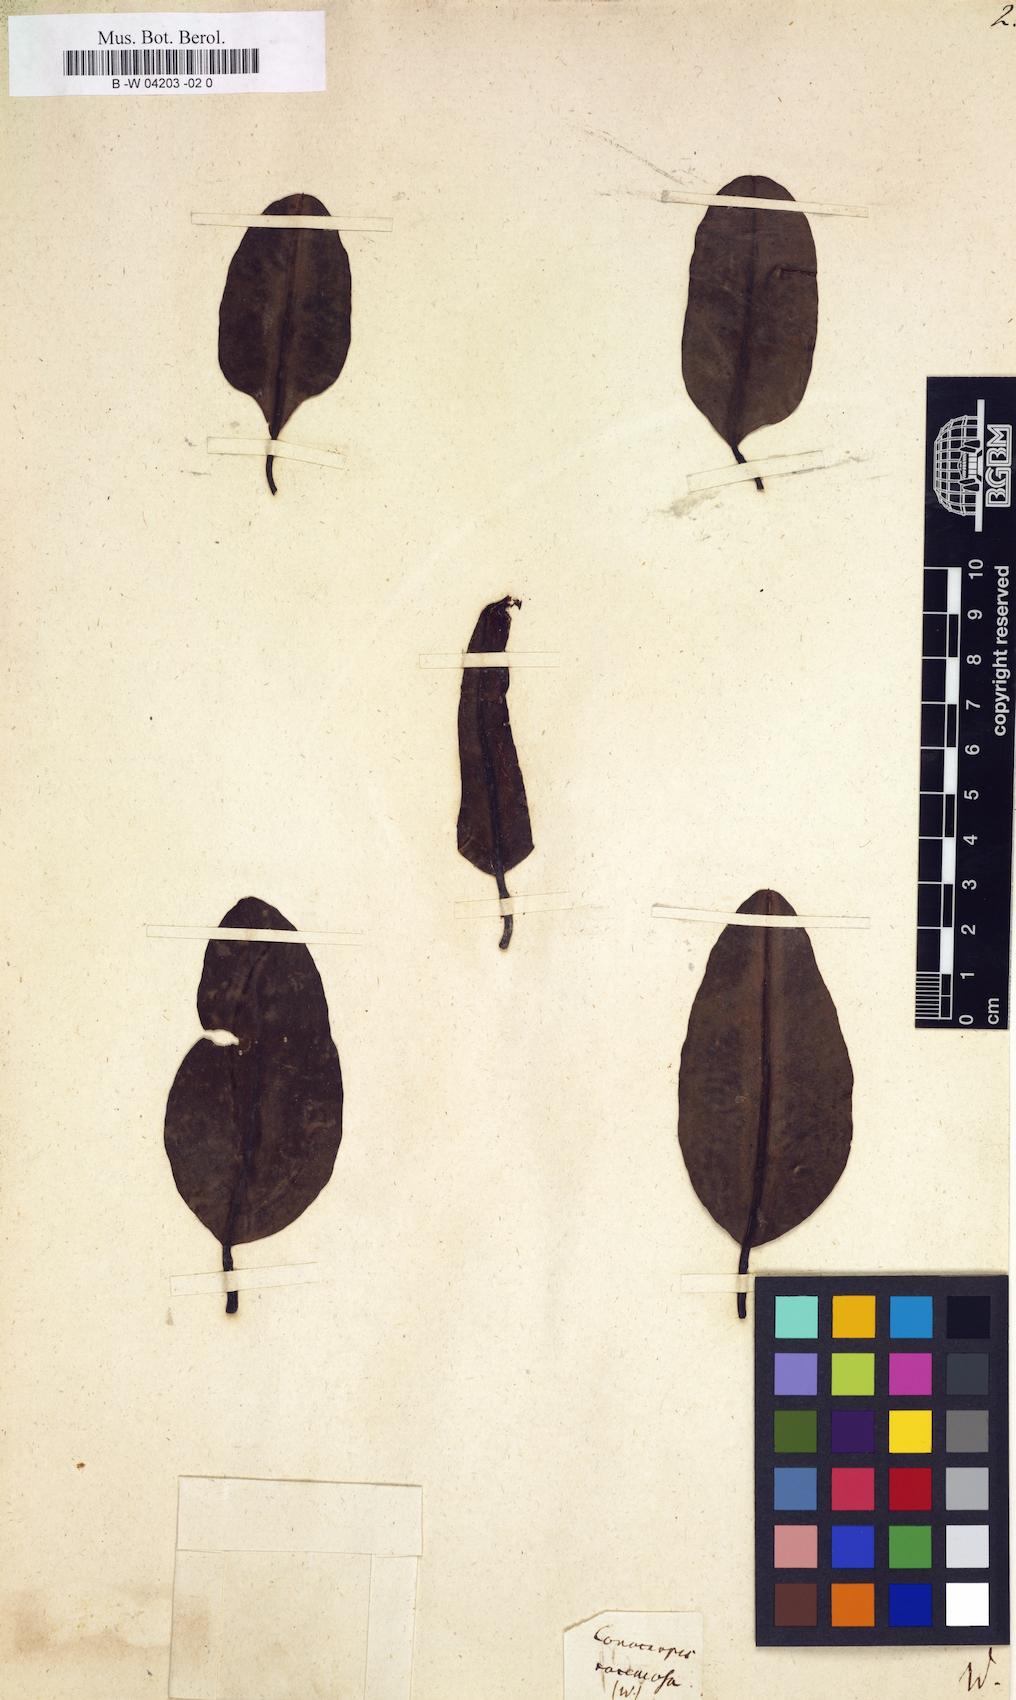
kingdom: Plantae
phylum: Tracheophyta
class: Magnoliopsida
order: Myrtales
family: Combretaceae
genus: Laguncularia
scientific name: Laguncularia racemosa
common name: White mangrove
